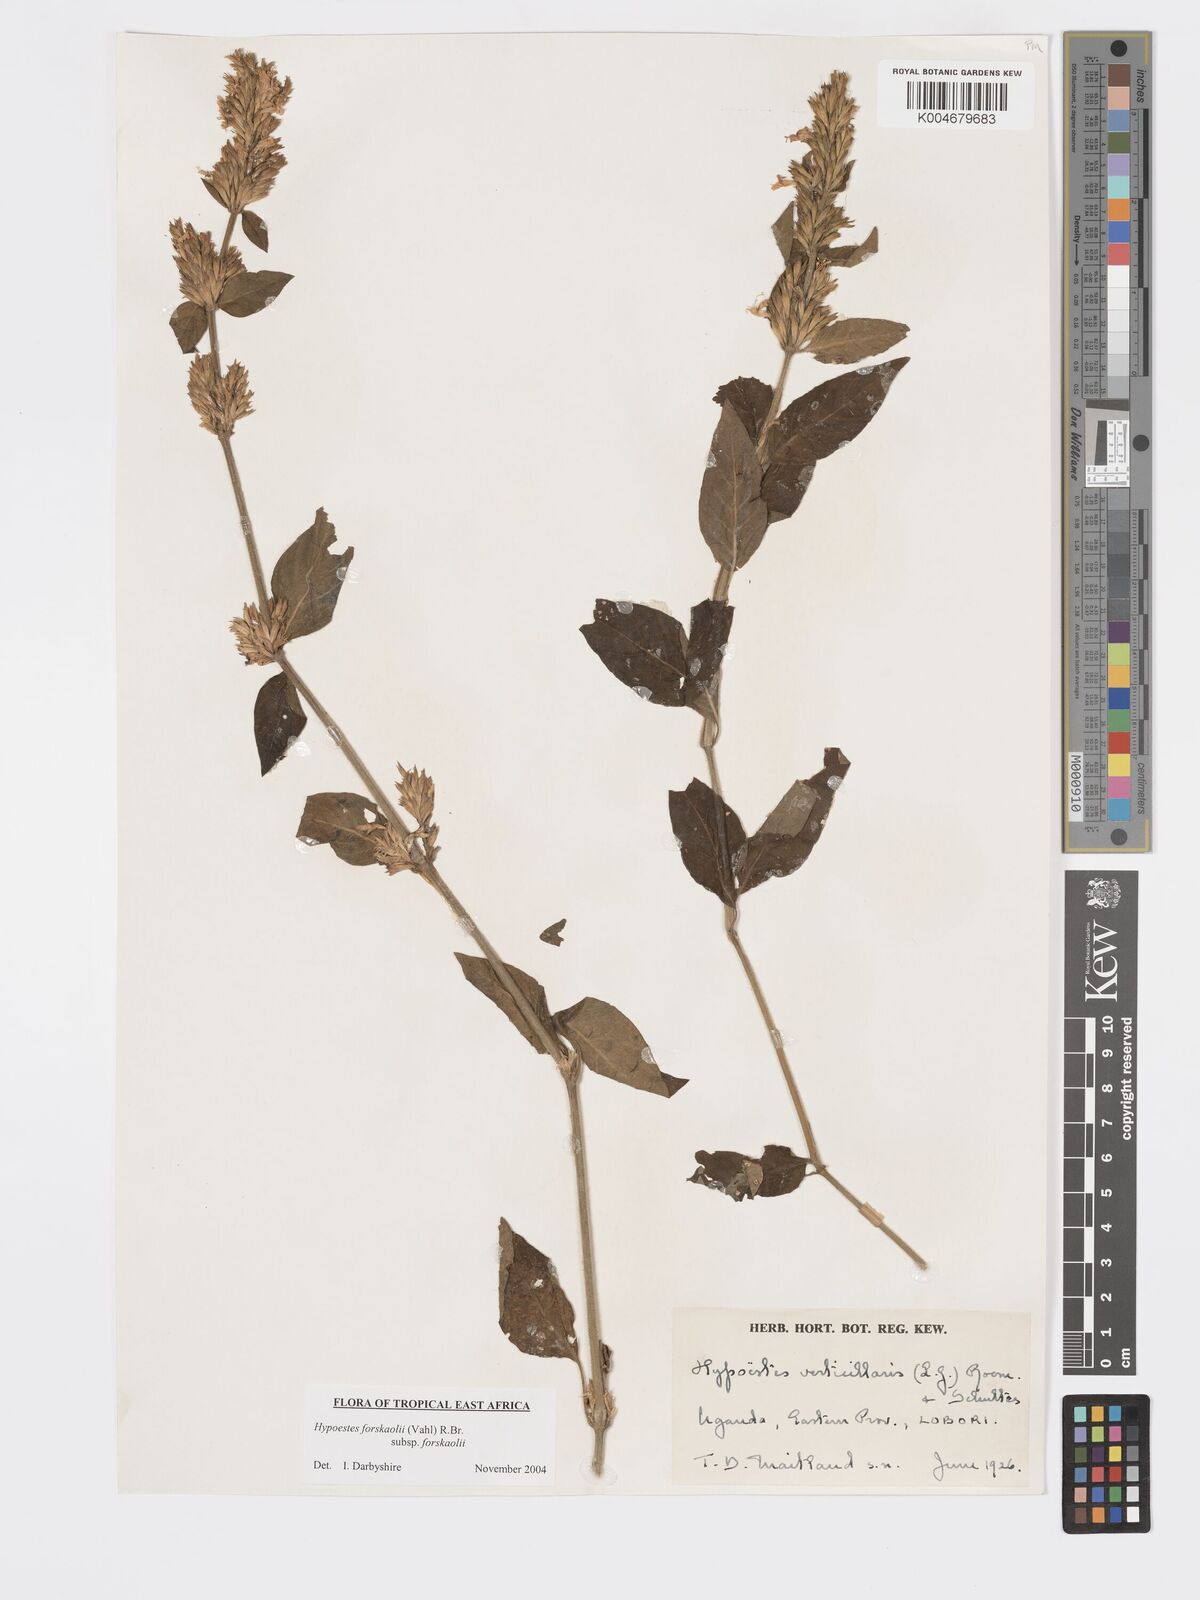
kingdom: Plantae
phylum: Tracheophyta
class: Magnoliopsida
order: Lamiales
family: Acanthaceae
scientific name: Acanthaceae
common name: Acanthaceae
